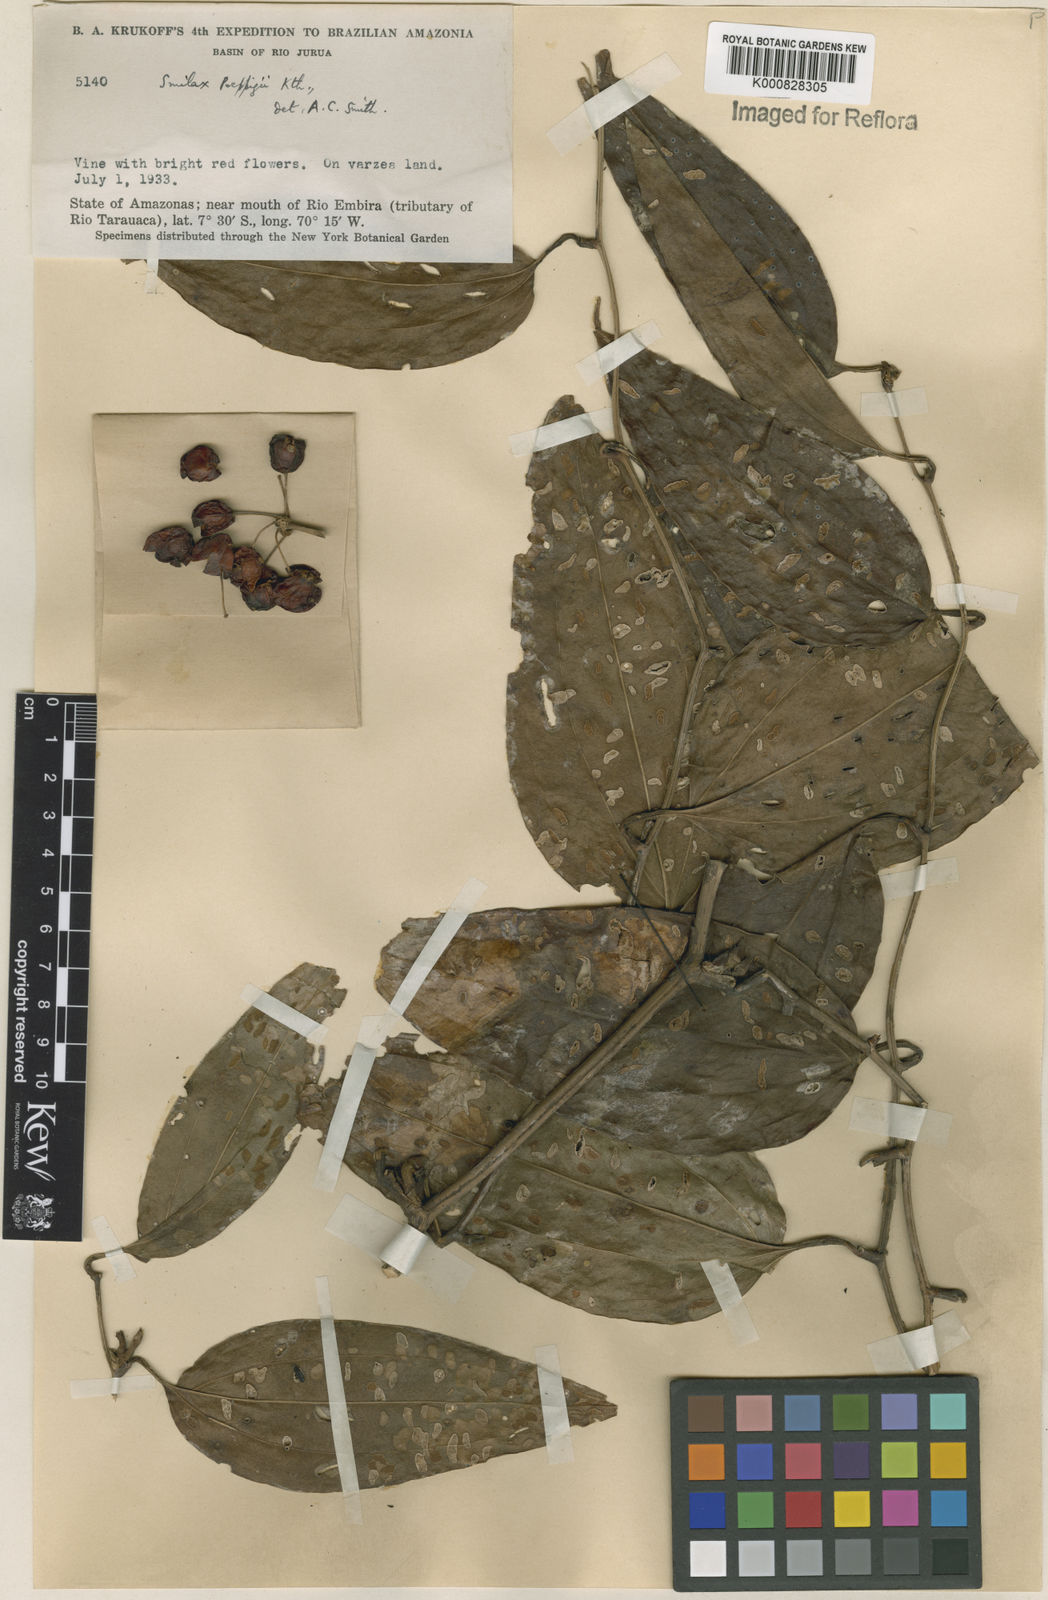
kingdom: Plantae
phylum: Tracheophyta
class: Liliopsida
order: Liliales
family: Smilacaceae
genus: Smilax
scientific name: Smilax purhampuy
